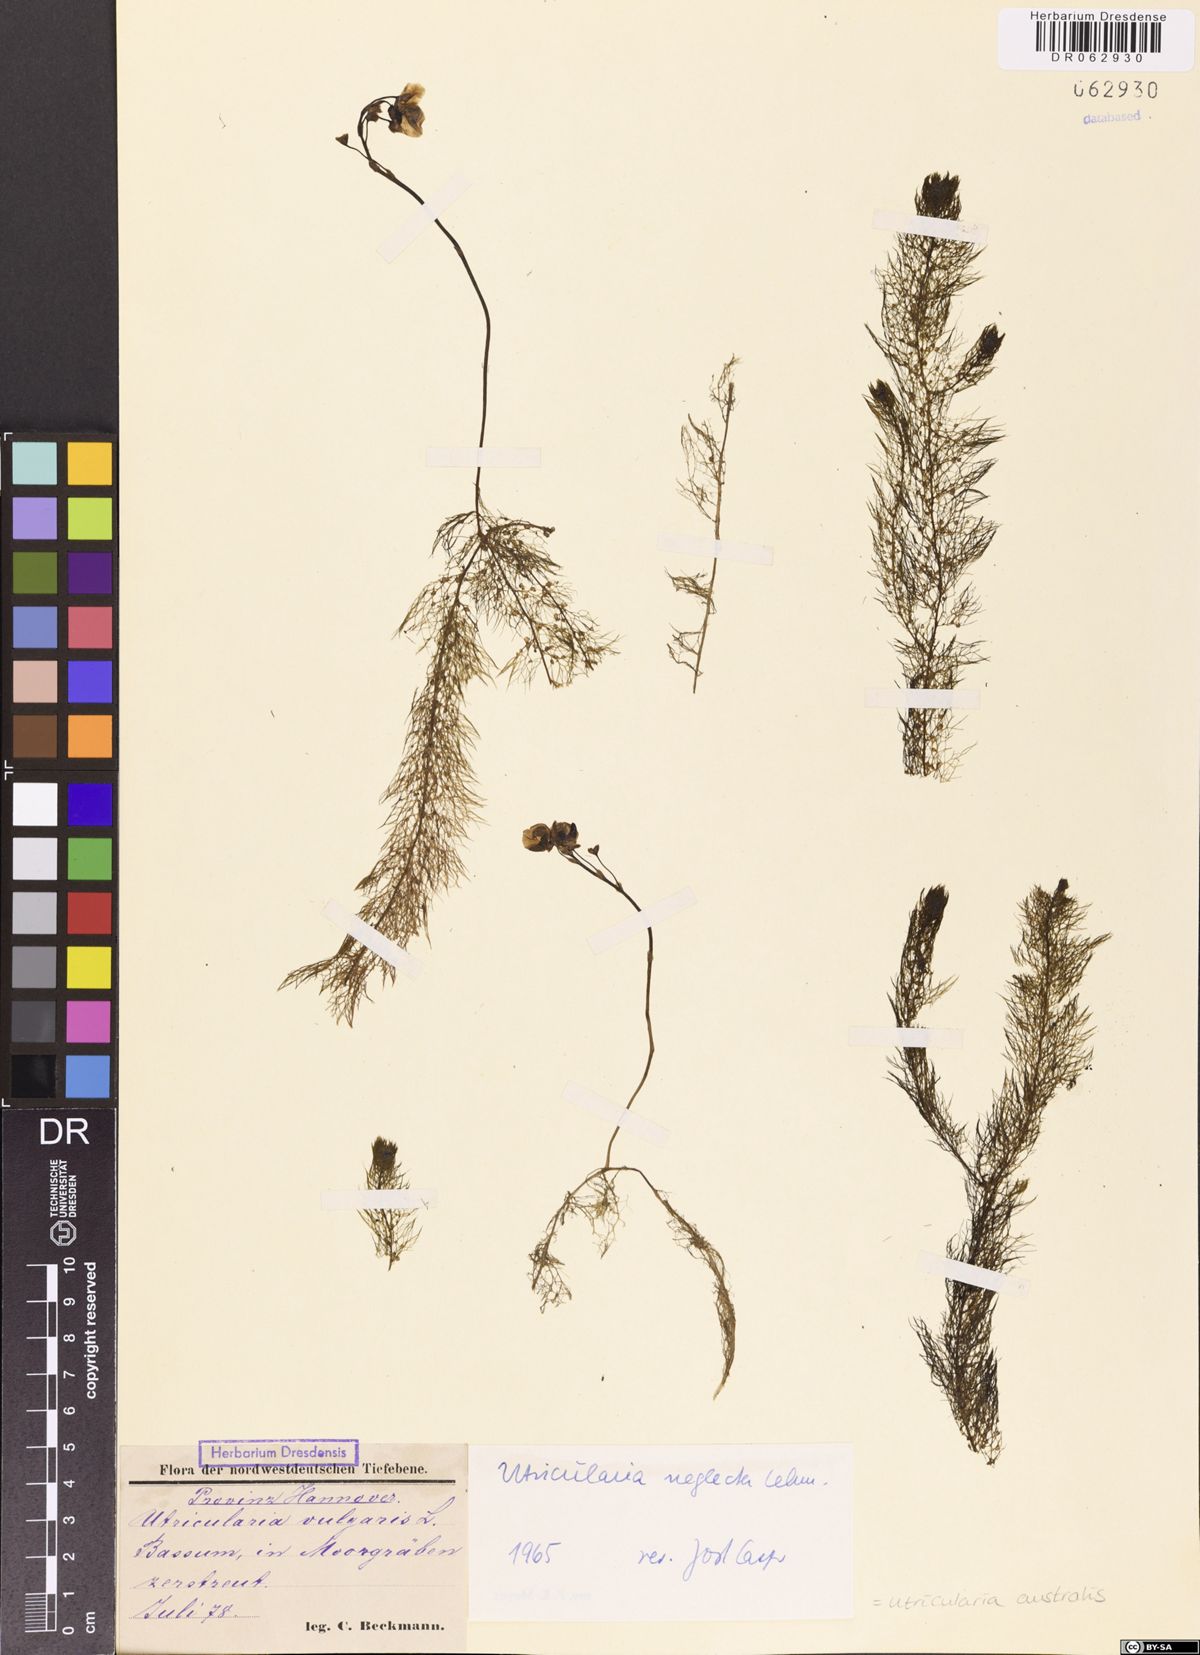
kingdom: Plantae
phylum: Tracheophyta
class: Magnoliopsida
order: Lamiales
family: Lentibulariaceae
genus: Utricularia
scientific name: Utricularia australis
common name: Bladderwort
